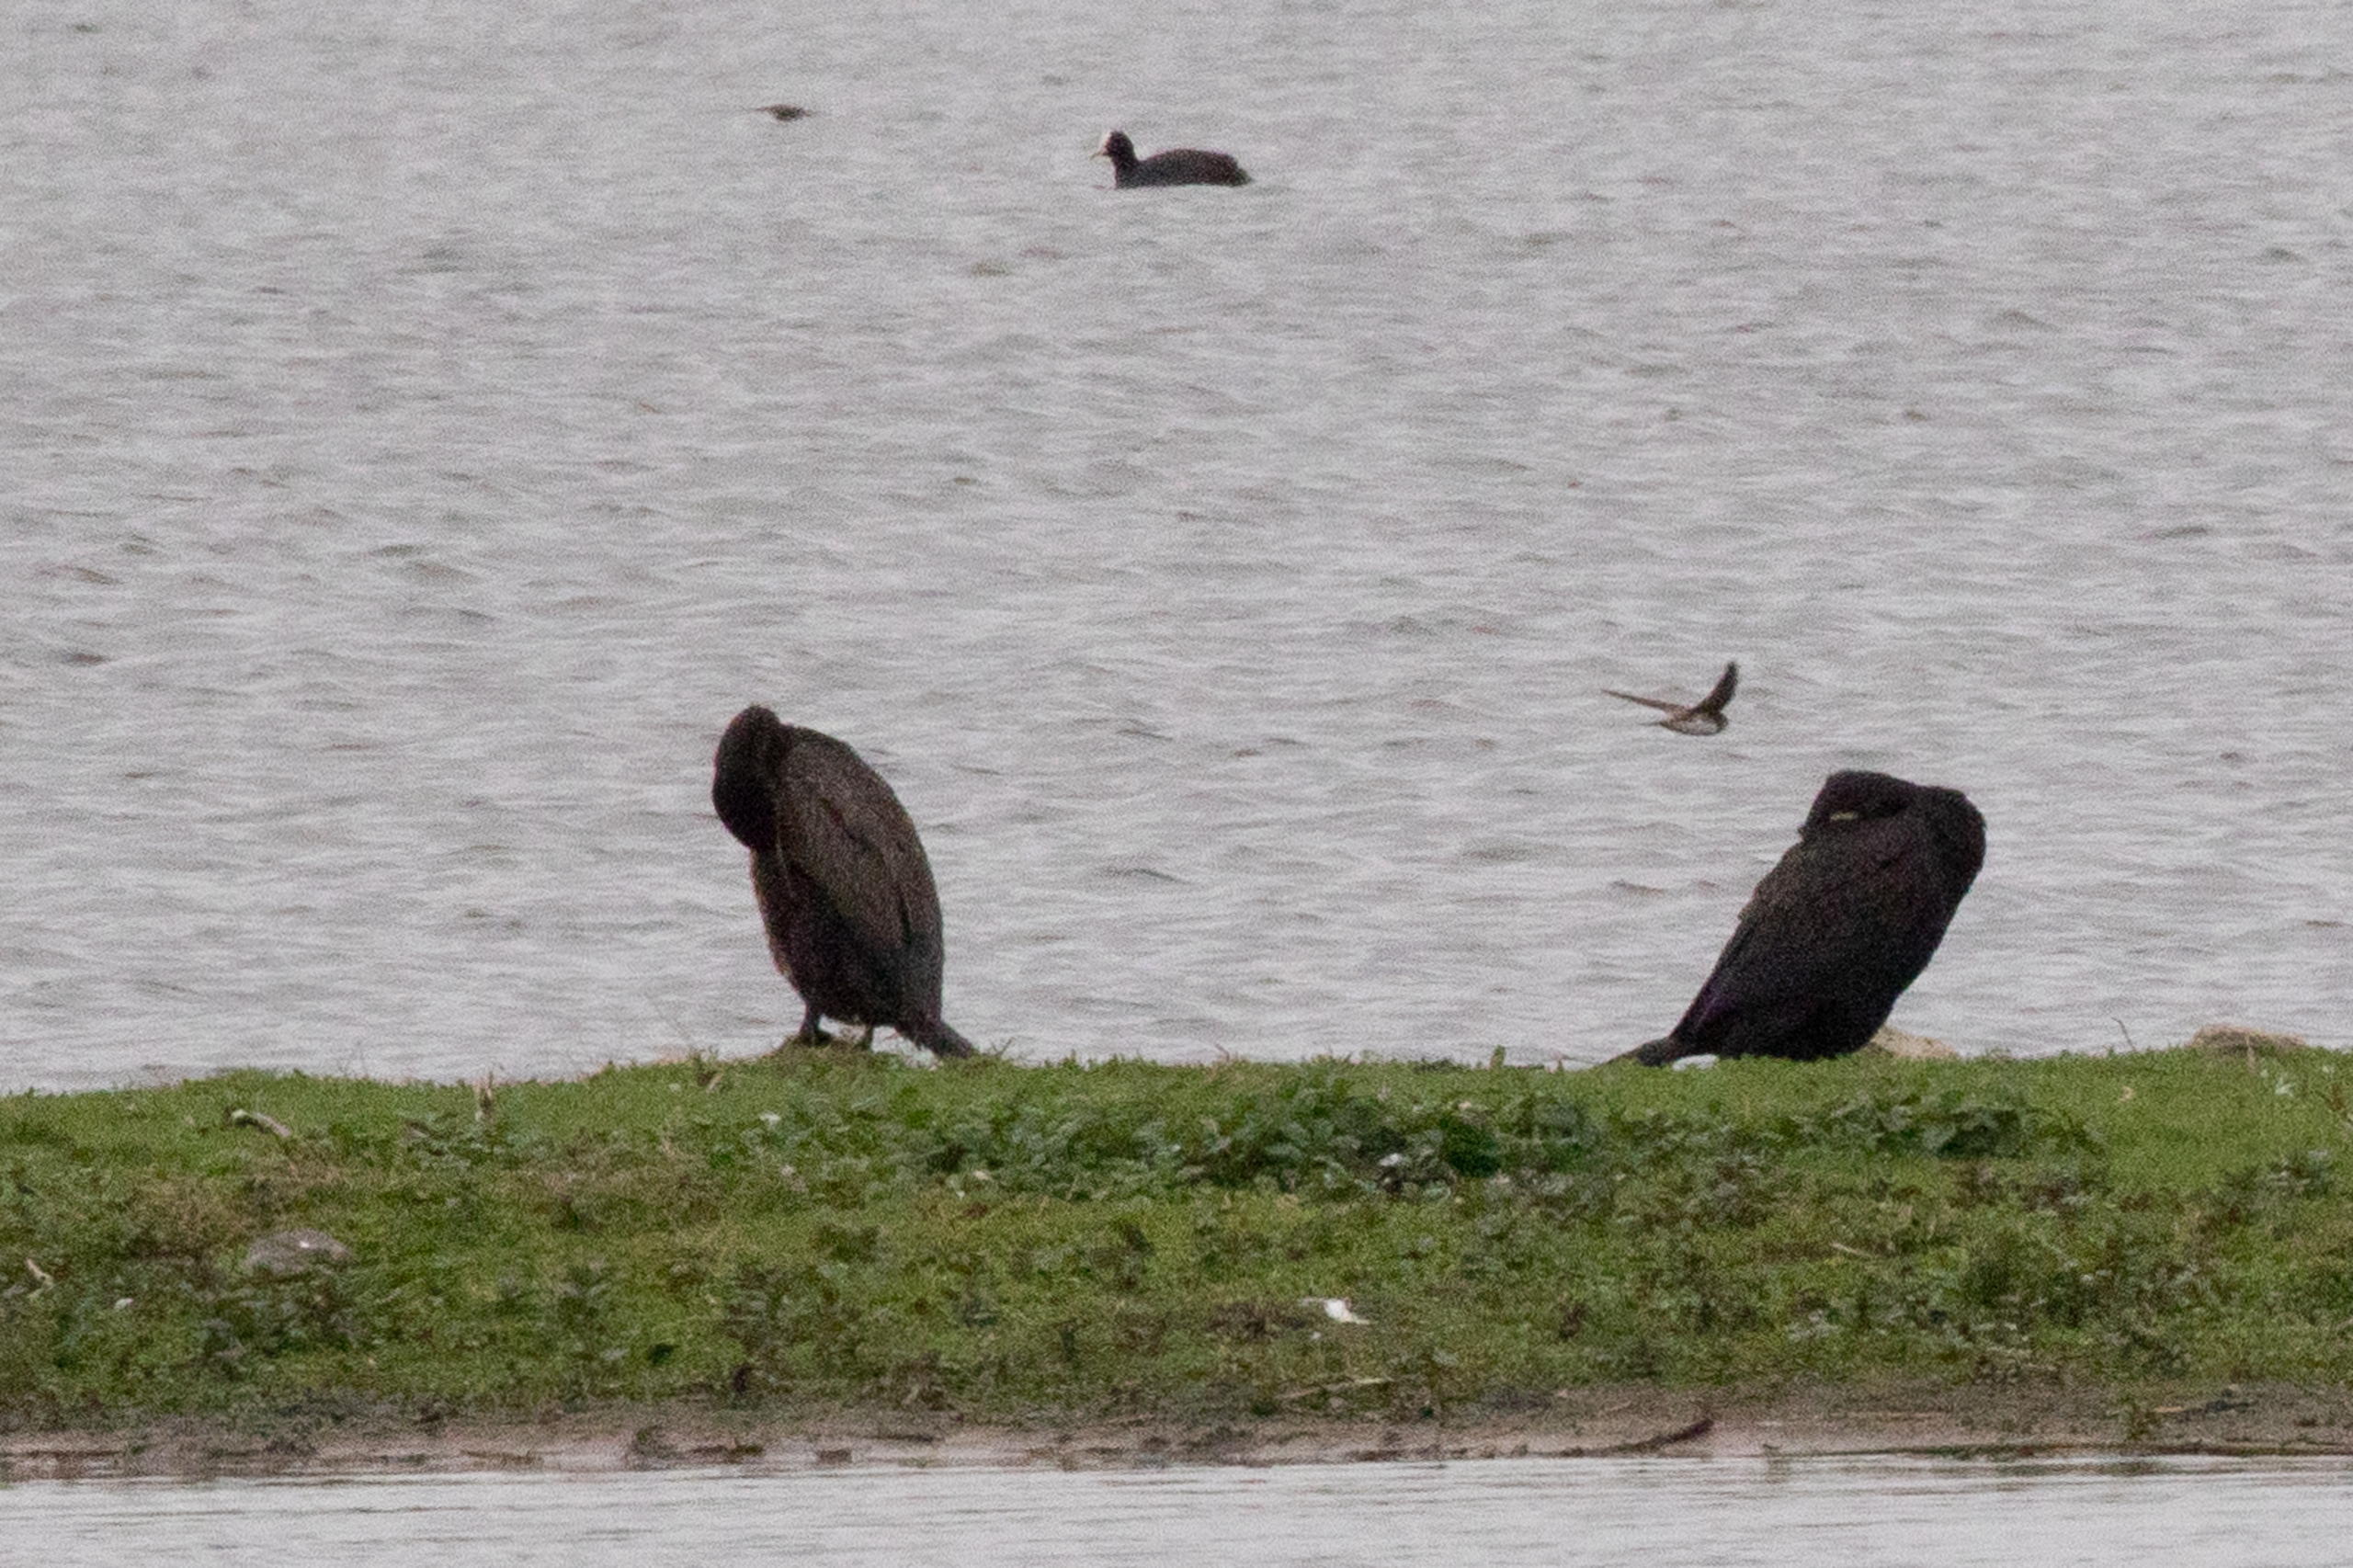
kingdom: Animalia
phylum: Chordata
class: Aves
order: Suliformes
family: Phalacrocoracidae
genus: Phalacrocorax
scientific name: Phalacrocorax carbo
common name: Skarv
